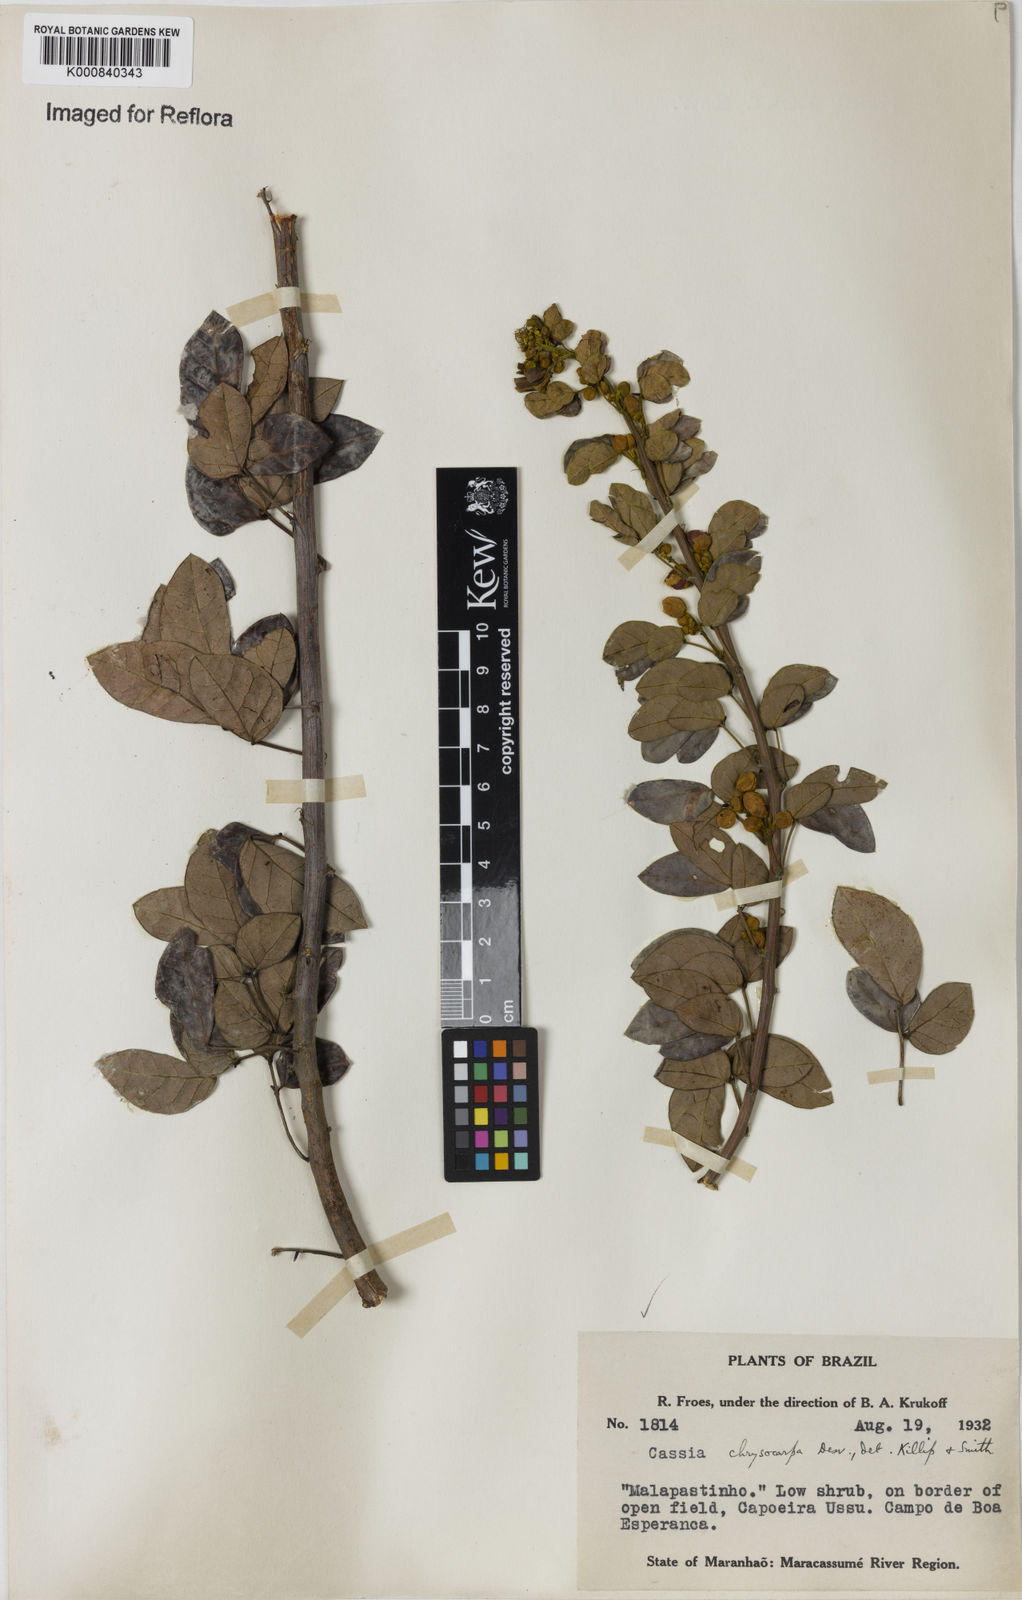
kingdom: Plantae
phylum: Tracheophyta
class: Magnoliopsida
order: Fabales
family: Fabaceae
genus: Senna
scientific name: Senna chrysocarpa
